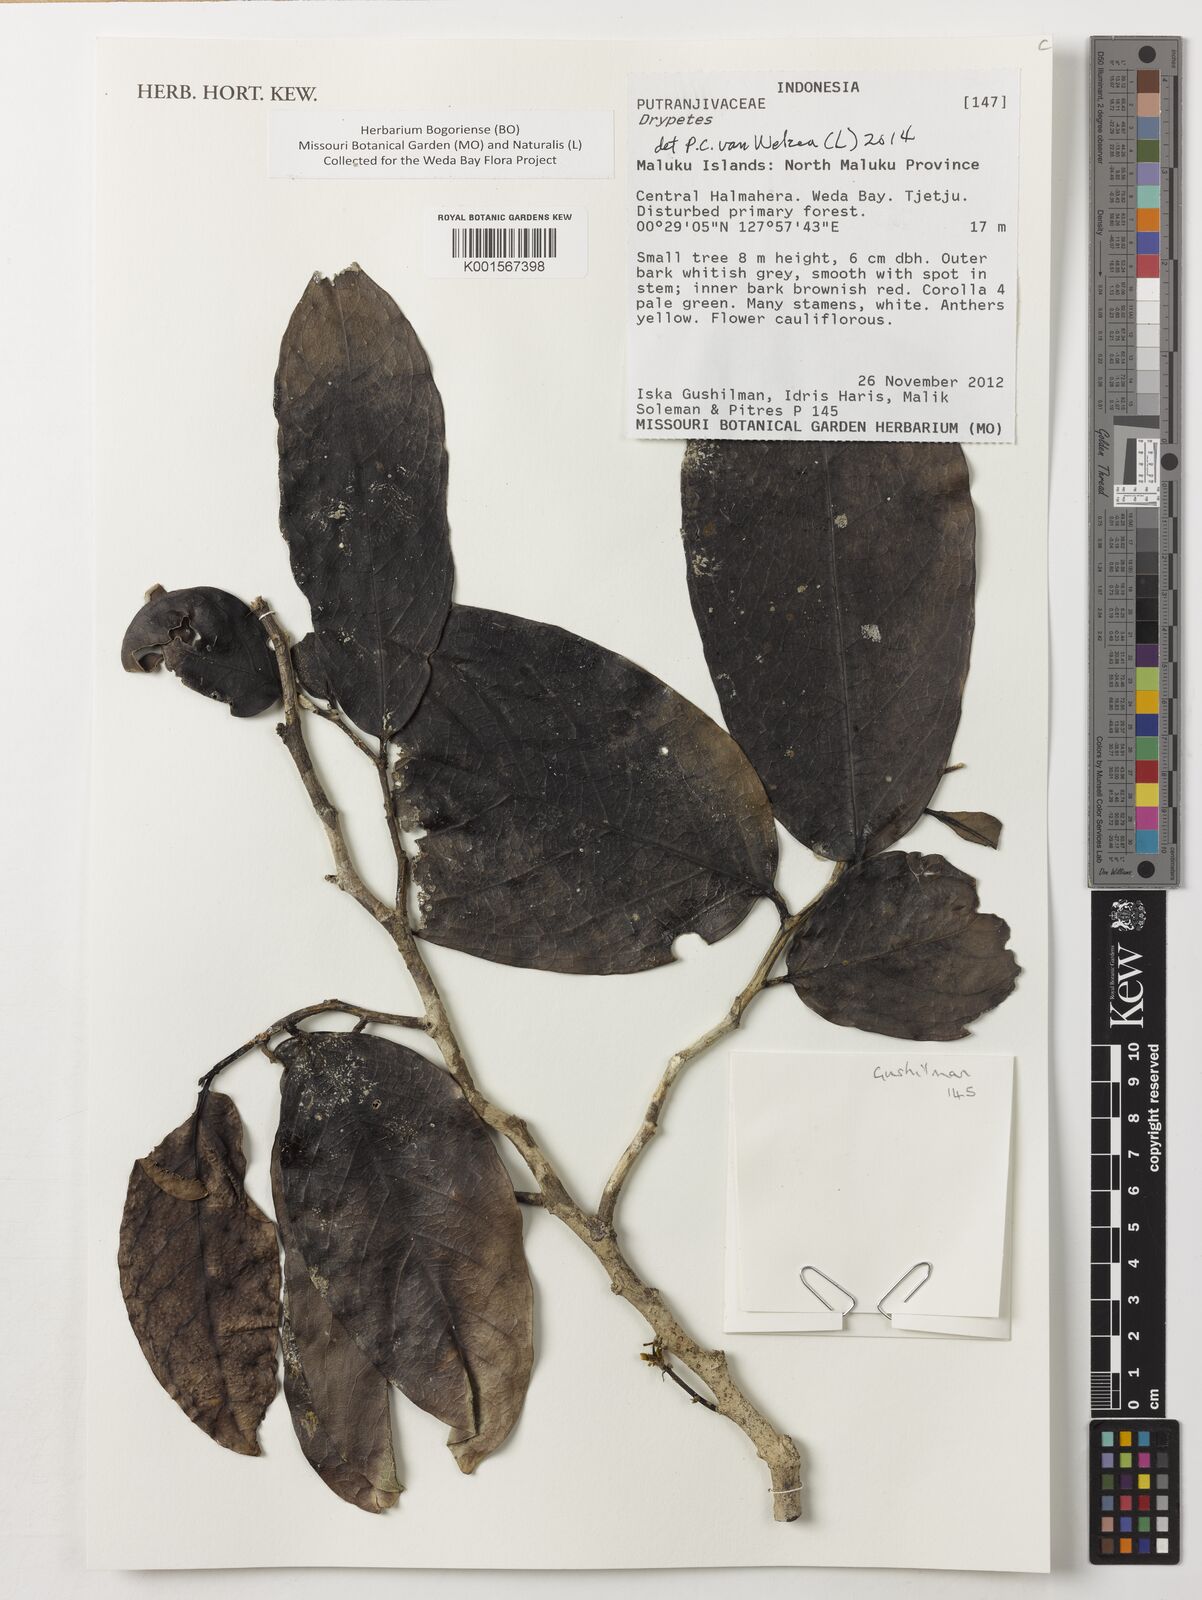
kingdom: Plantae
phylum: Tracheophyta
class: Magnoliopsida
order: Malpighiales
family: Putranjivaceae
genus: Drypetes
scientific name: Drypetes
